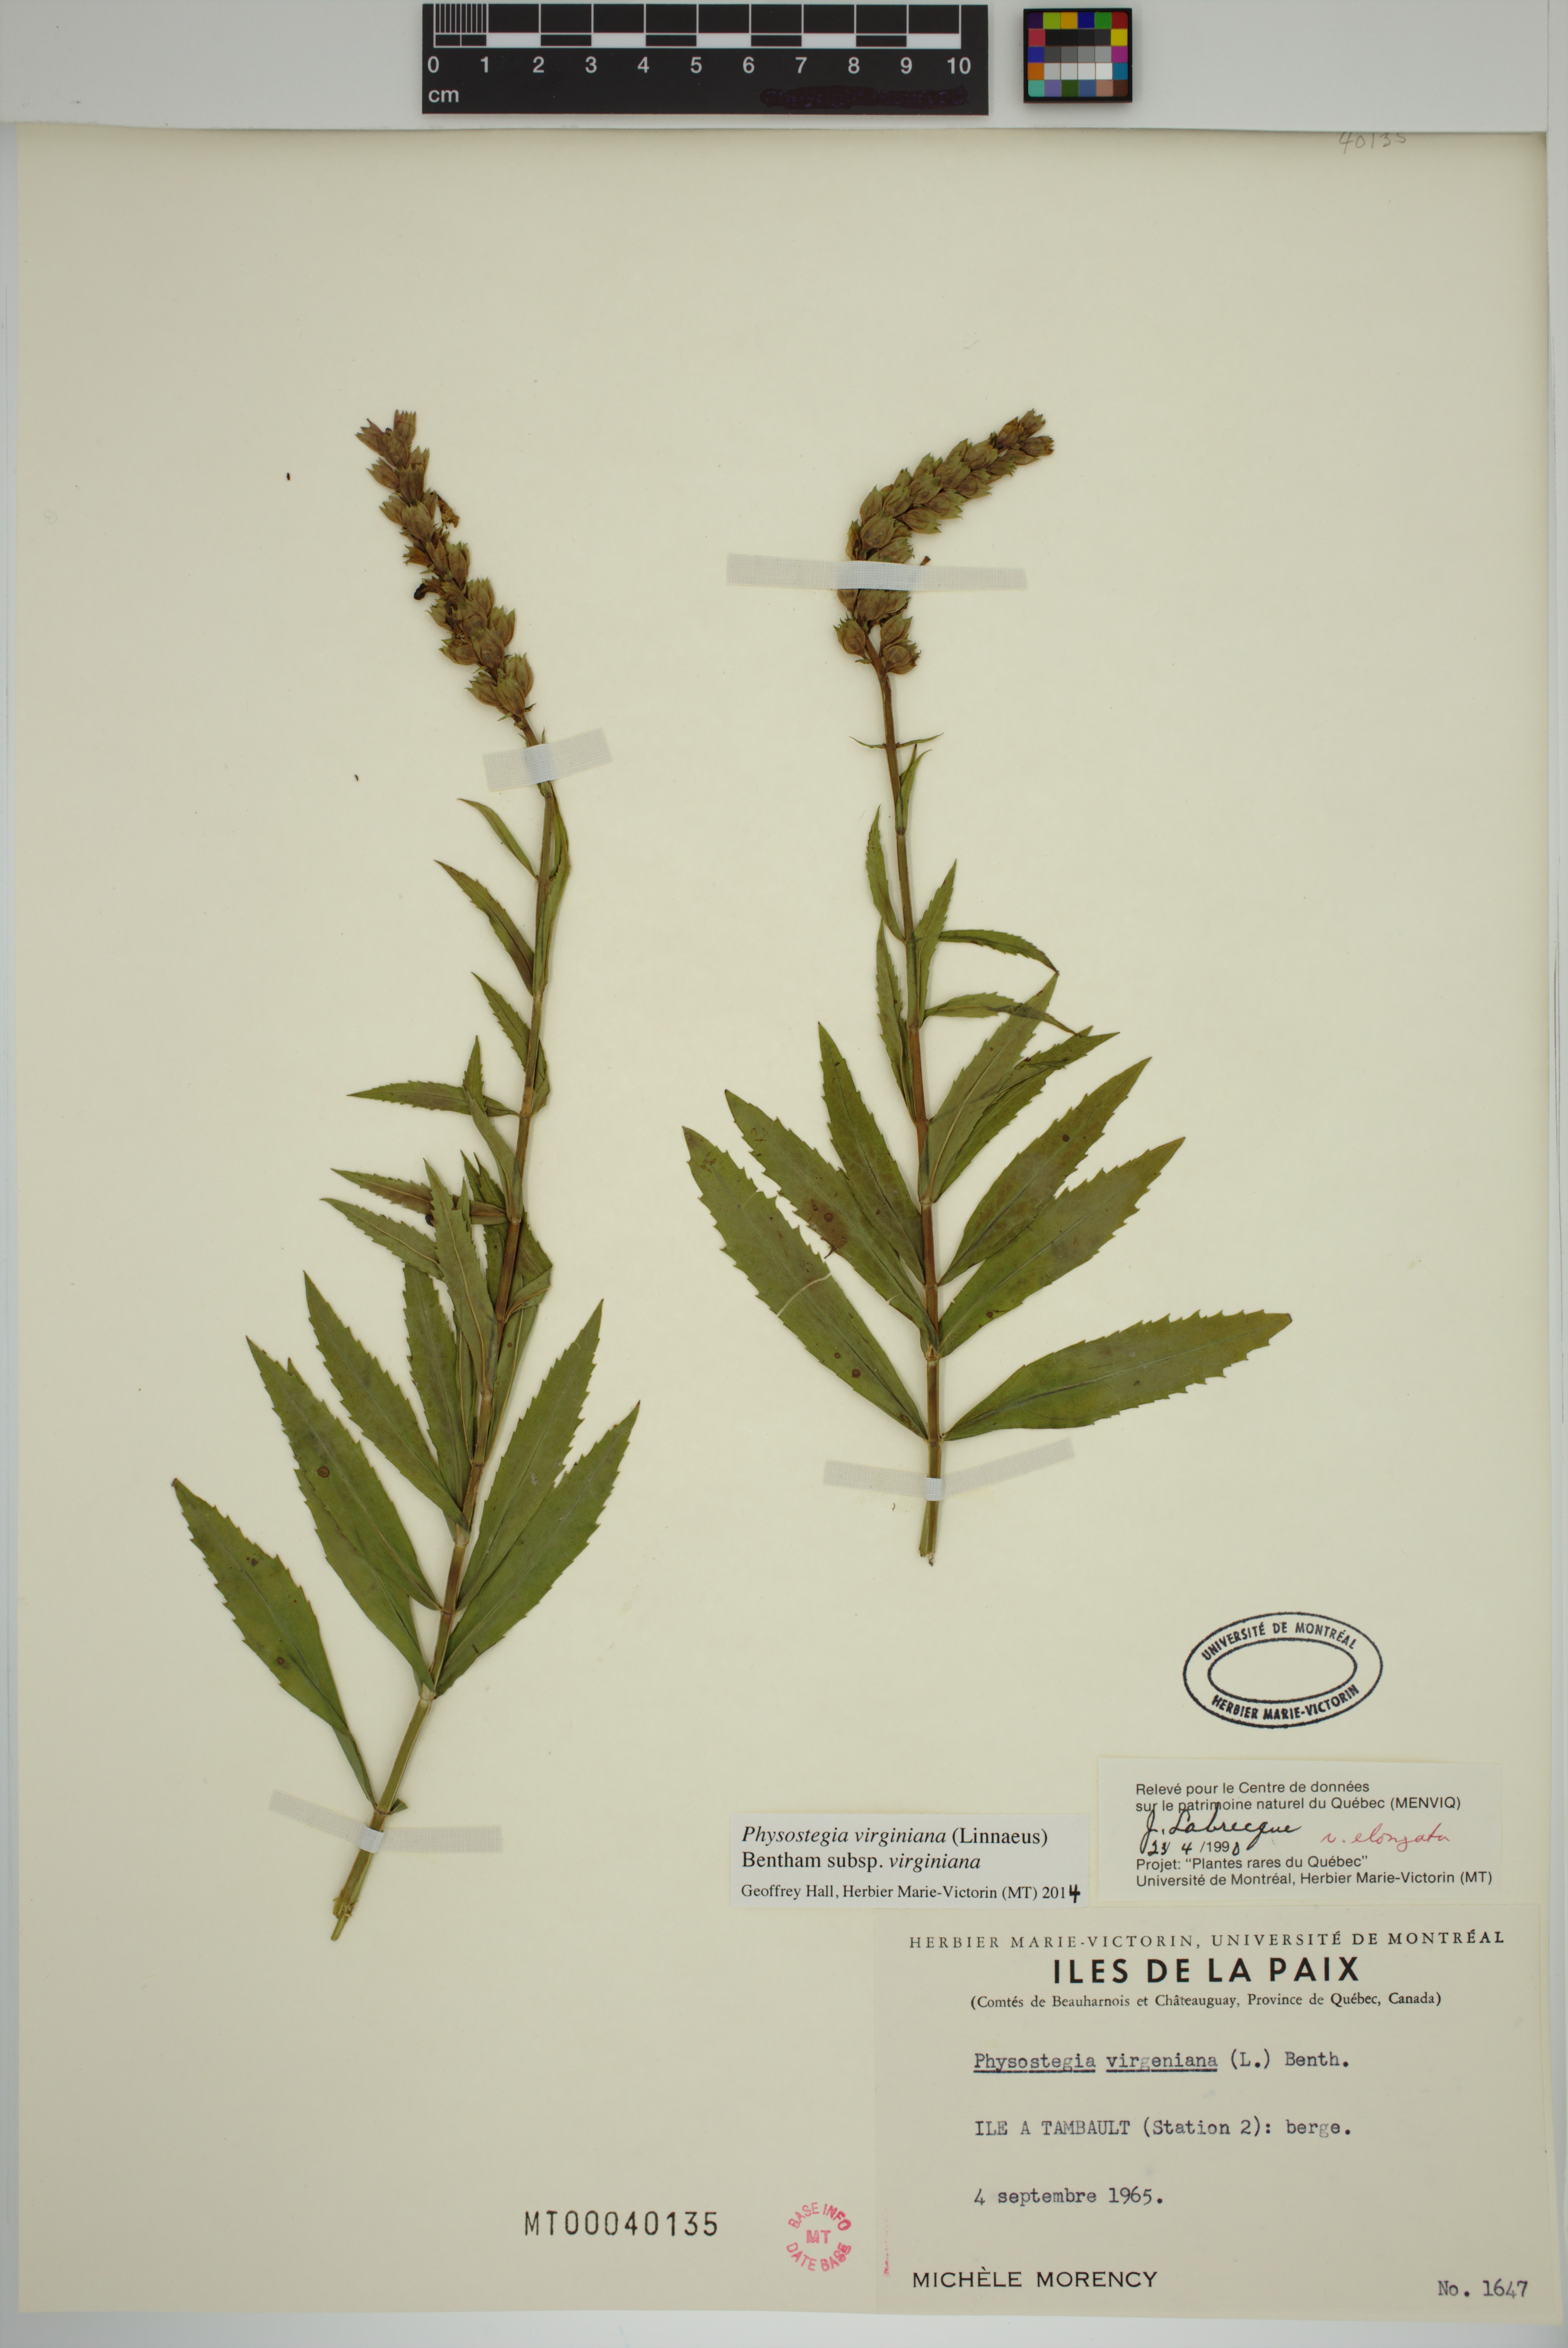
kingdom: Plantae
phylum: Tracheophyta
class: Magnoliopsida
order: Lamiales
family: Lamiaceae
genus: Physostegia
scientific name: Physostegia virginiana
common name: Obedient-plant
